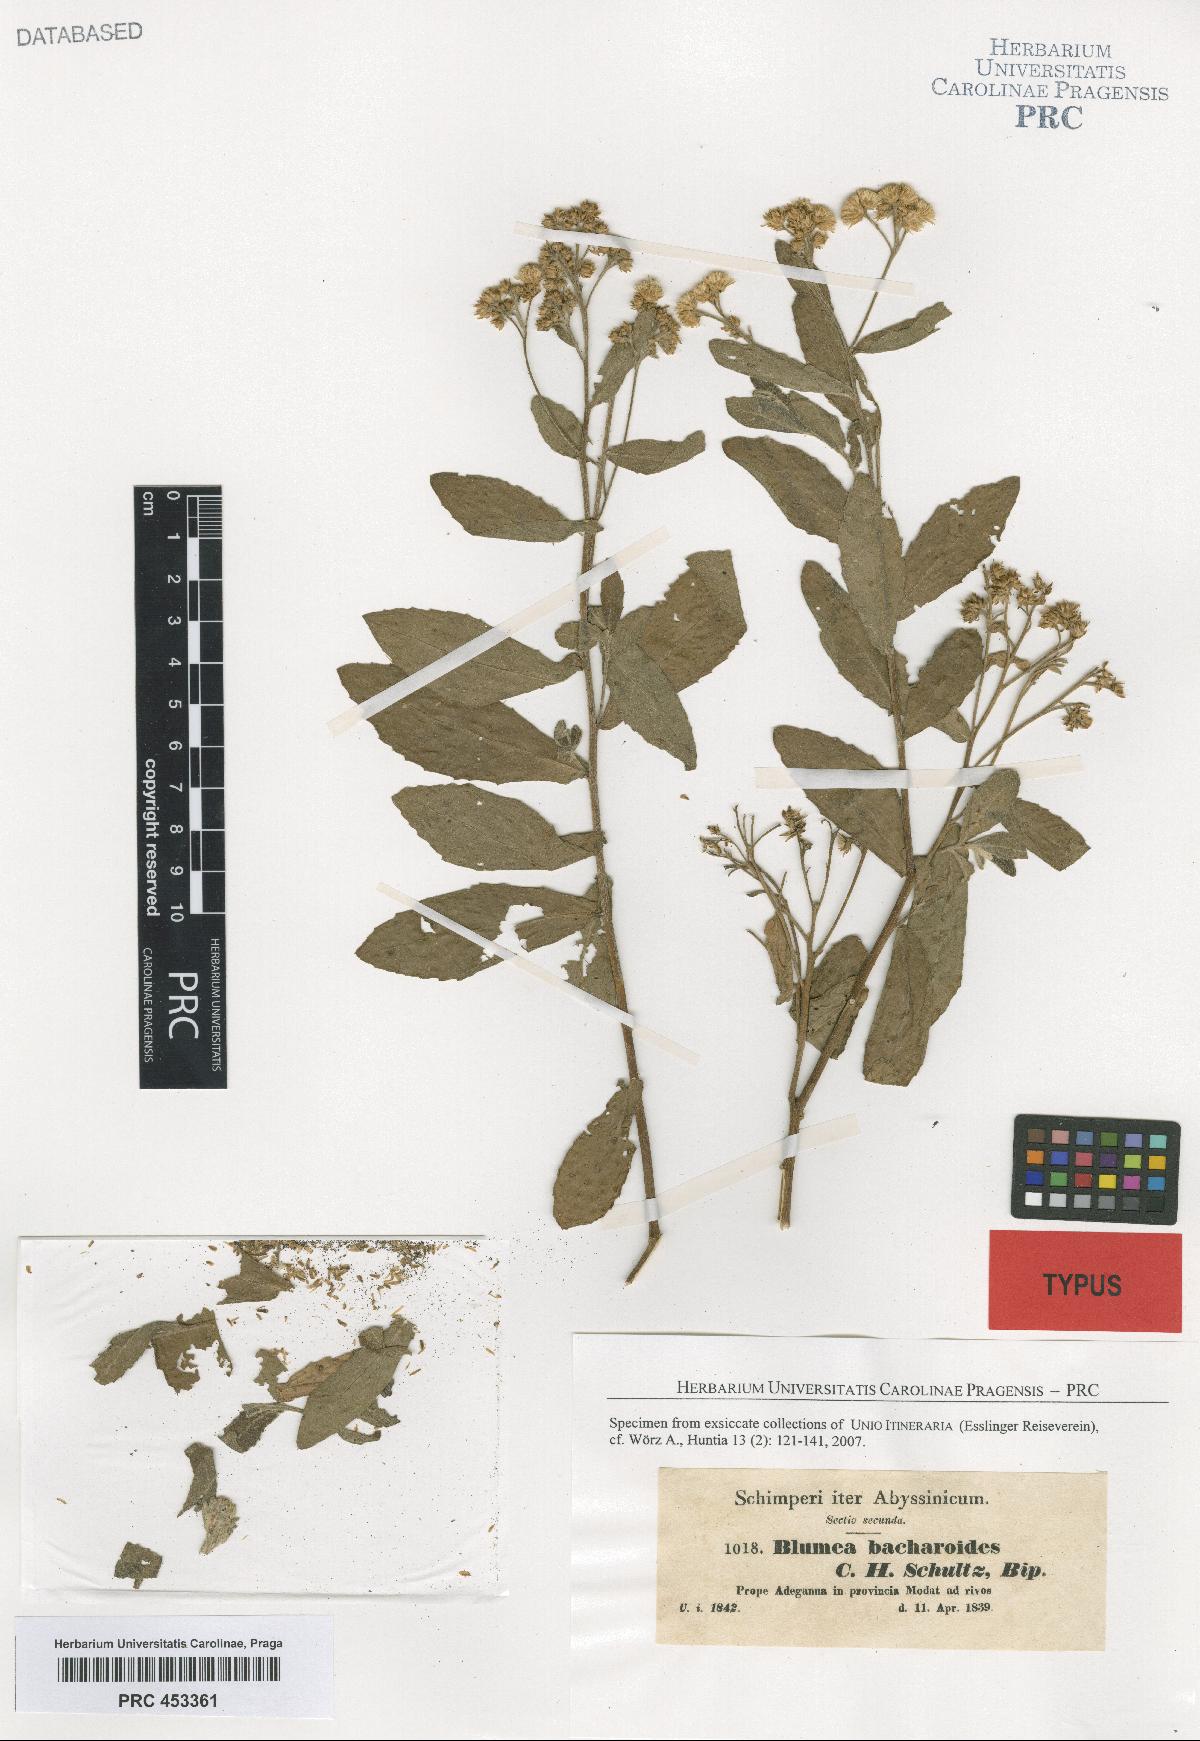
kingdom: Plantae
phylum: Tracheophyta
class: Magnoliopsida
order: Asterales
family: Asteraceae
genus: Pluchea
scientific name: Pluchea dioscoridis
